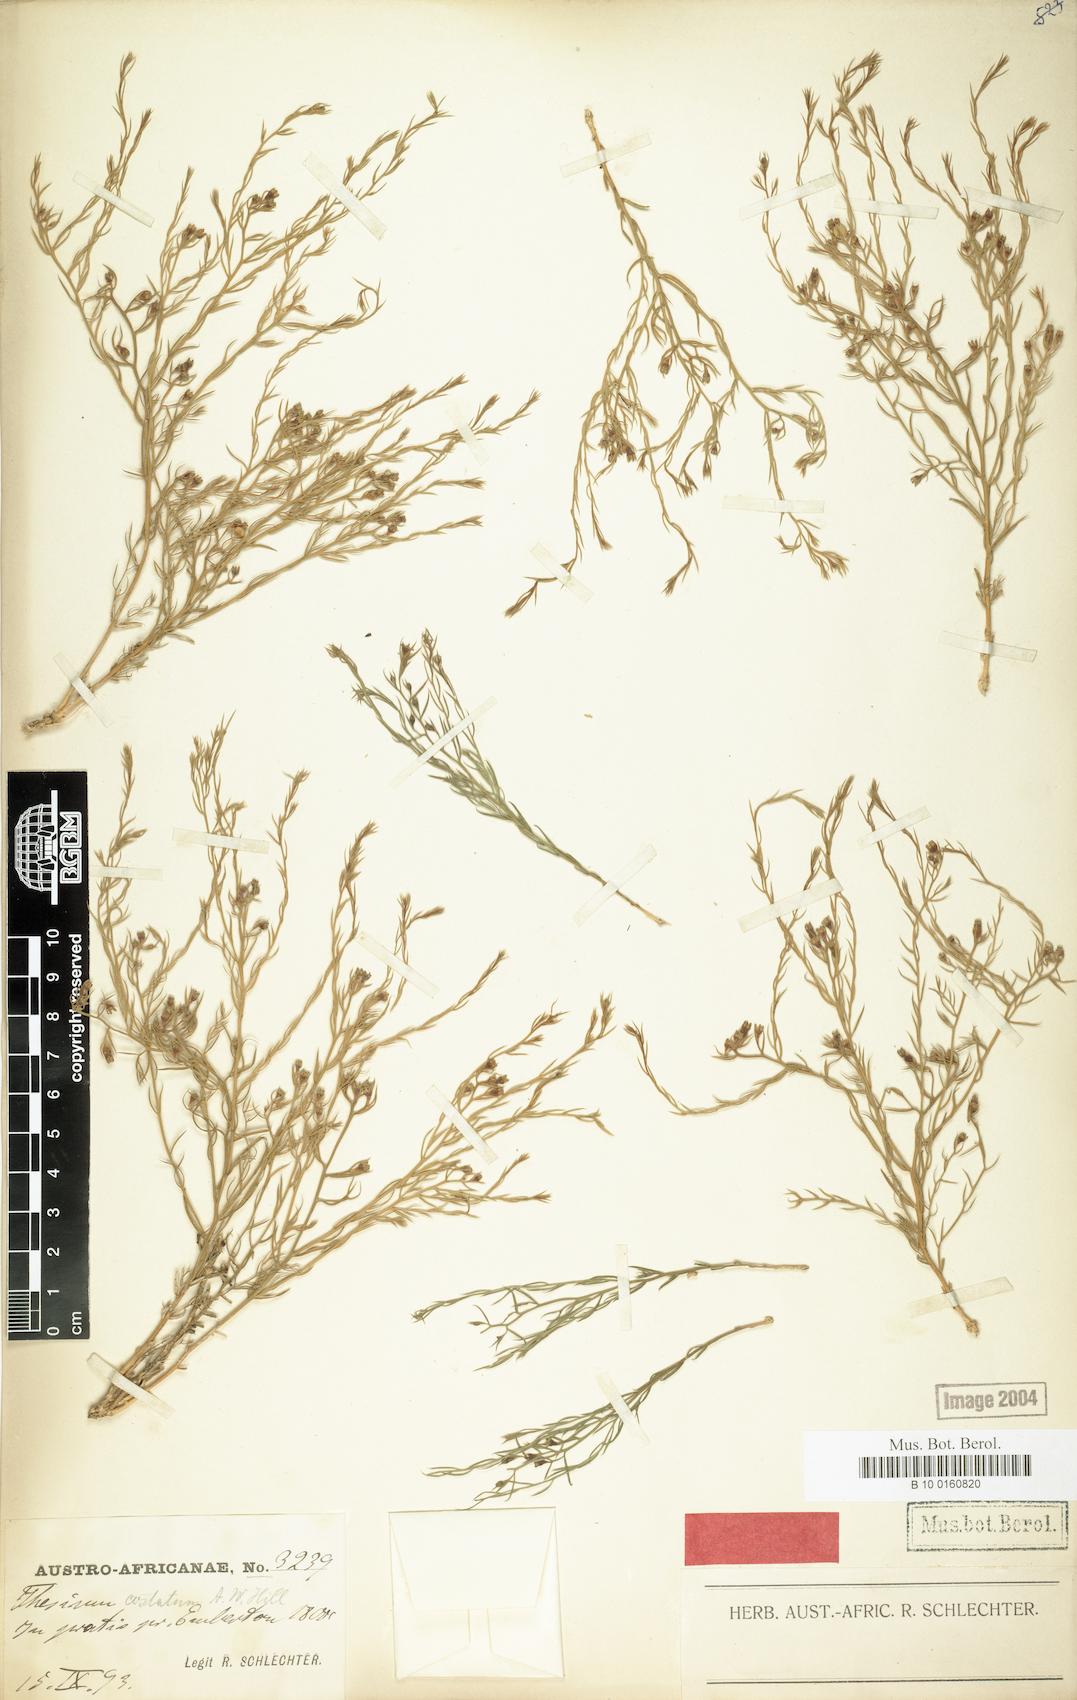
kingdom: Plantae
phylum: Tracheophyta
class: Magnoliopsida
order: Santalales
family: Thesiaceae
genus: Thesium
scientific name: Thesium costatum
